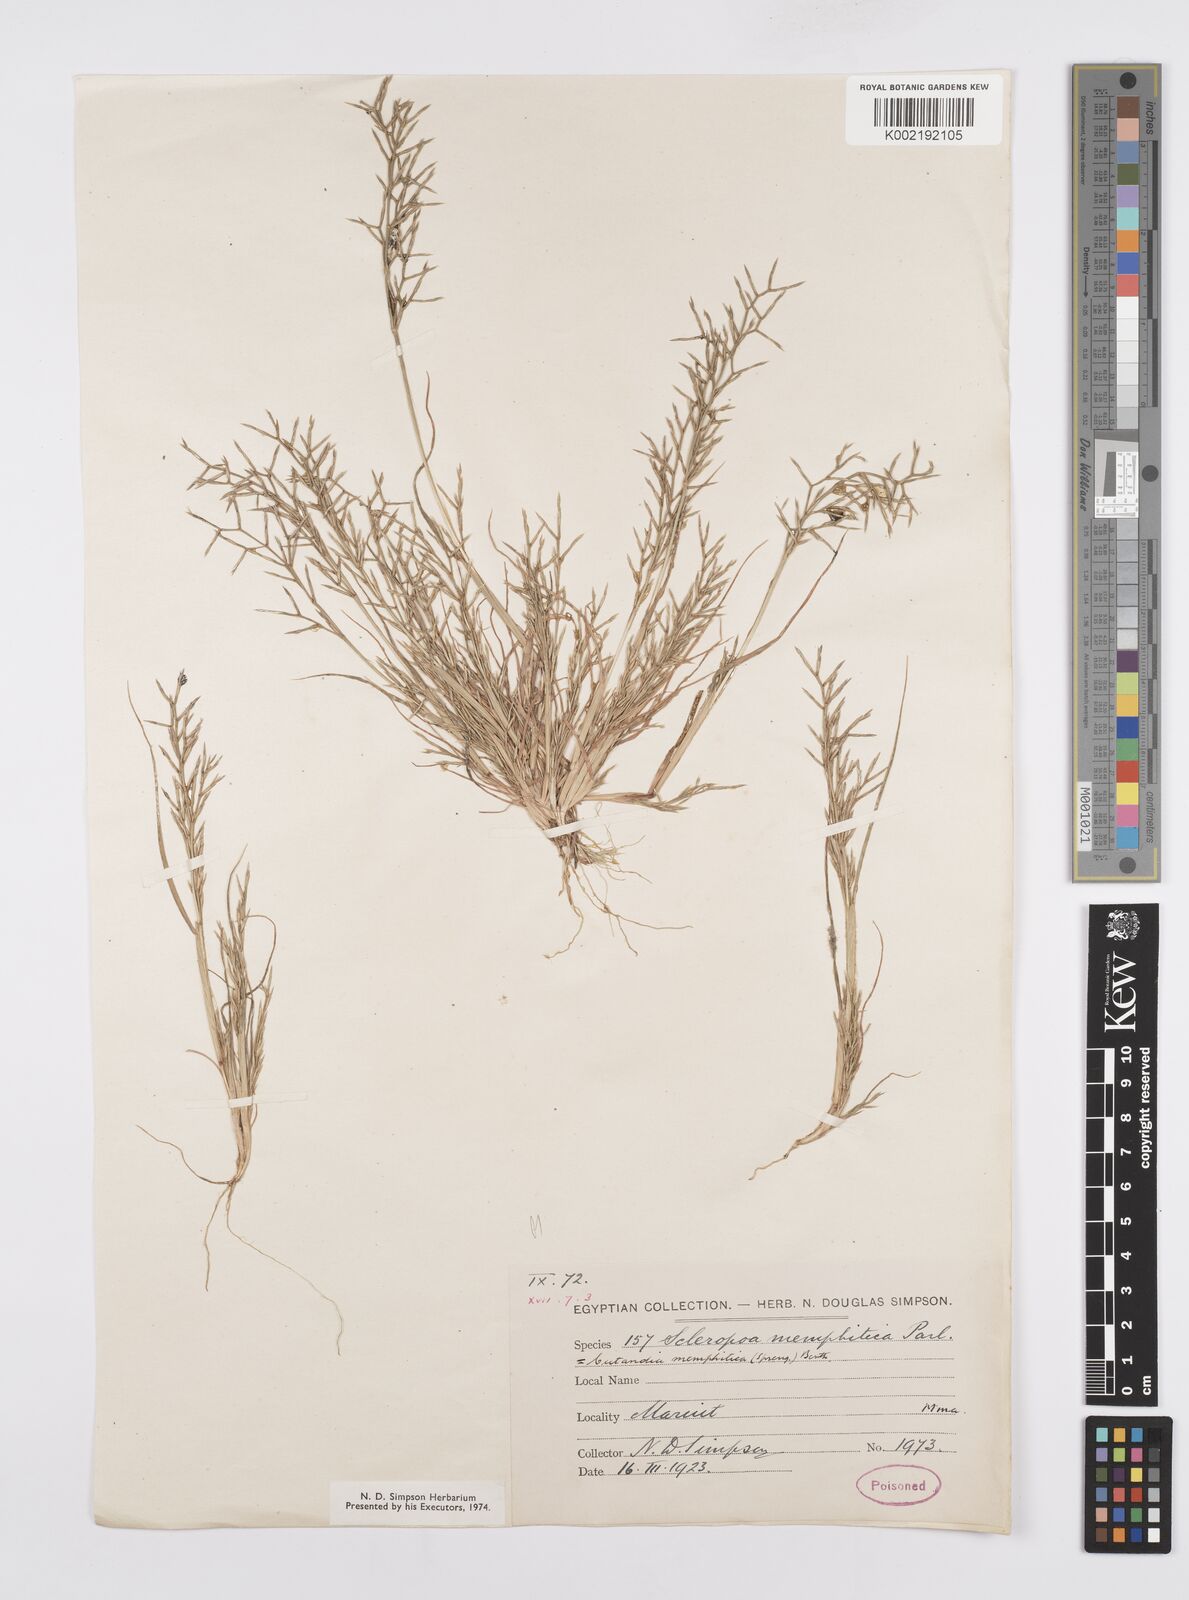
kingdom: Plantae
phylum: Tracheophyta
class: Liliopsida
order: Poales
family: Poaceae
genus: Cutandia
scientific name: Cutandia memphitica
